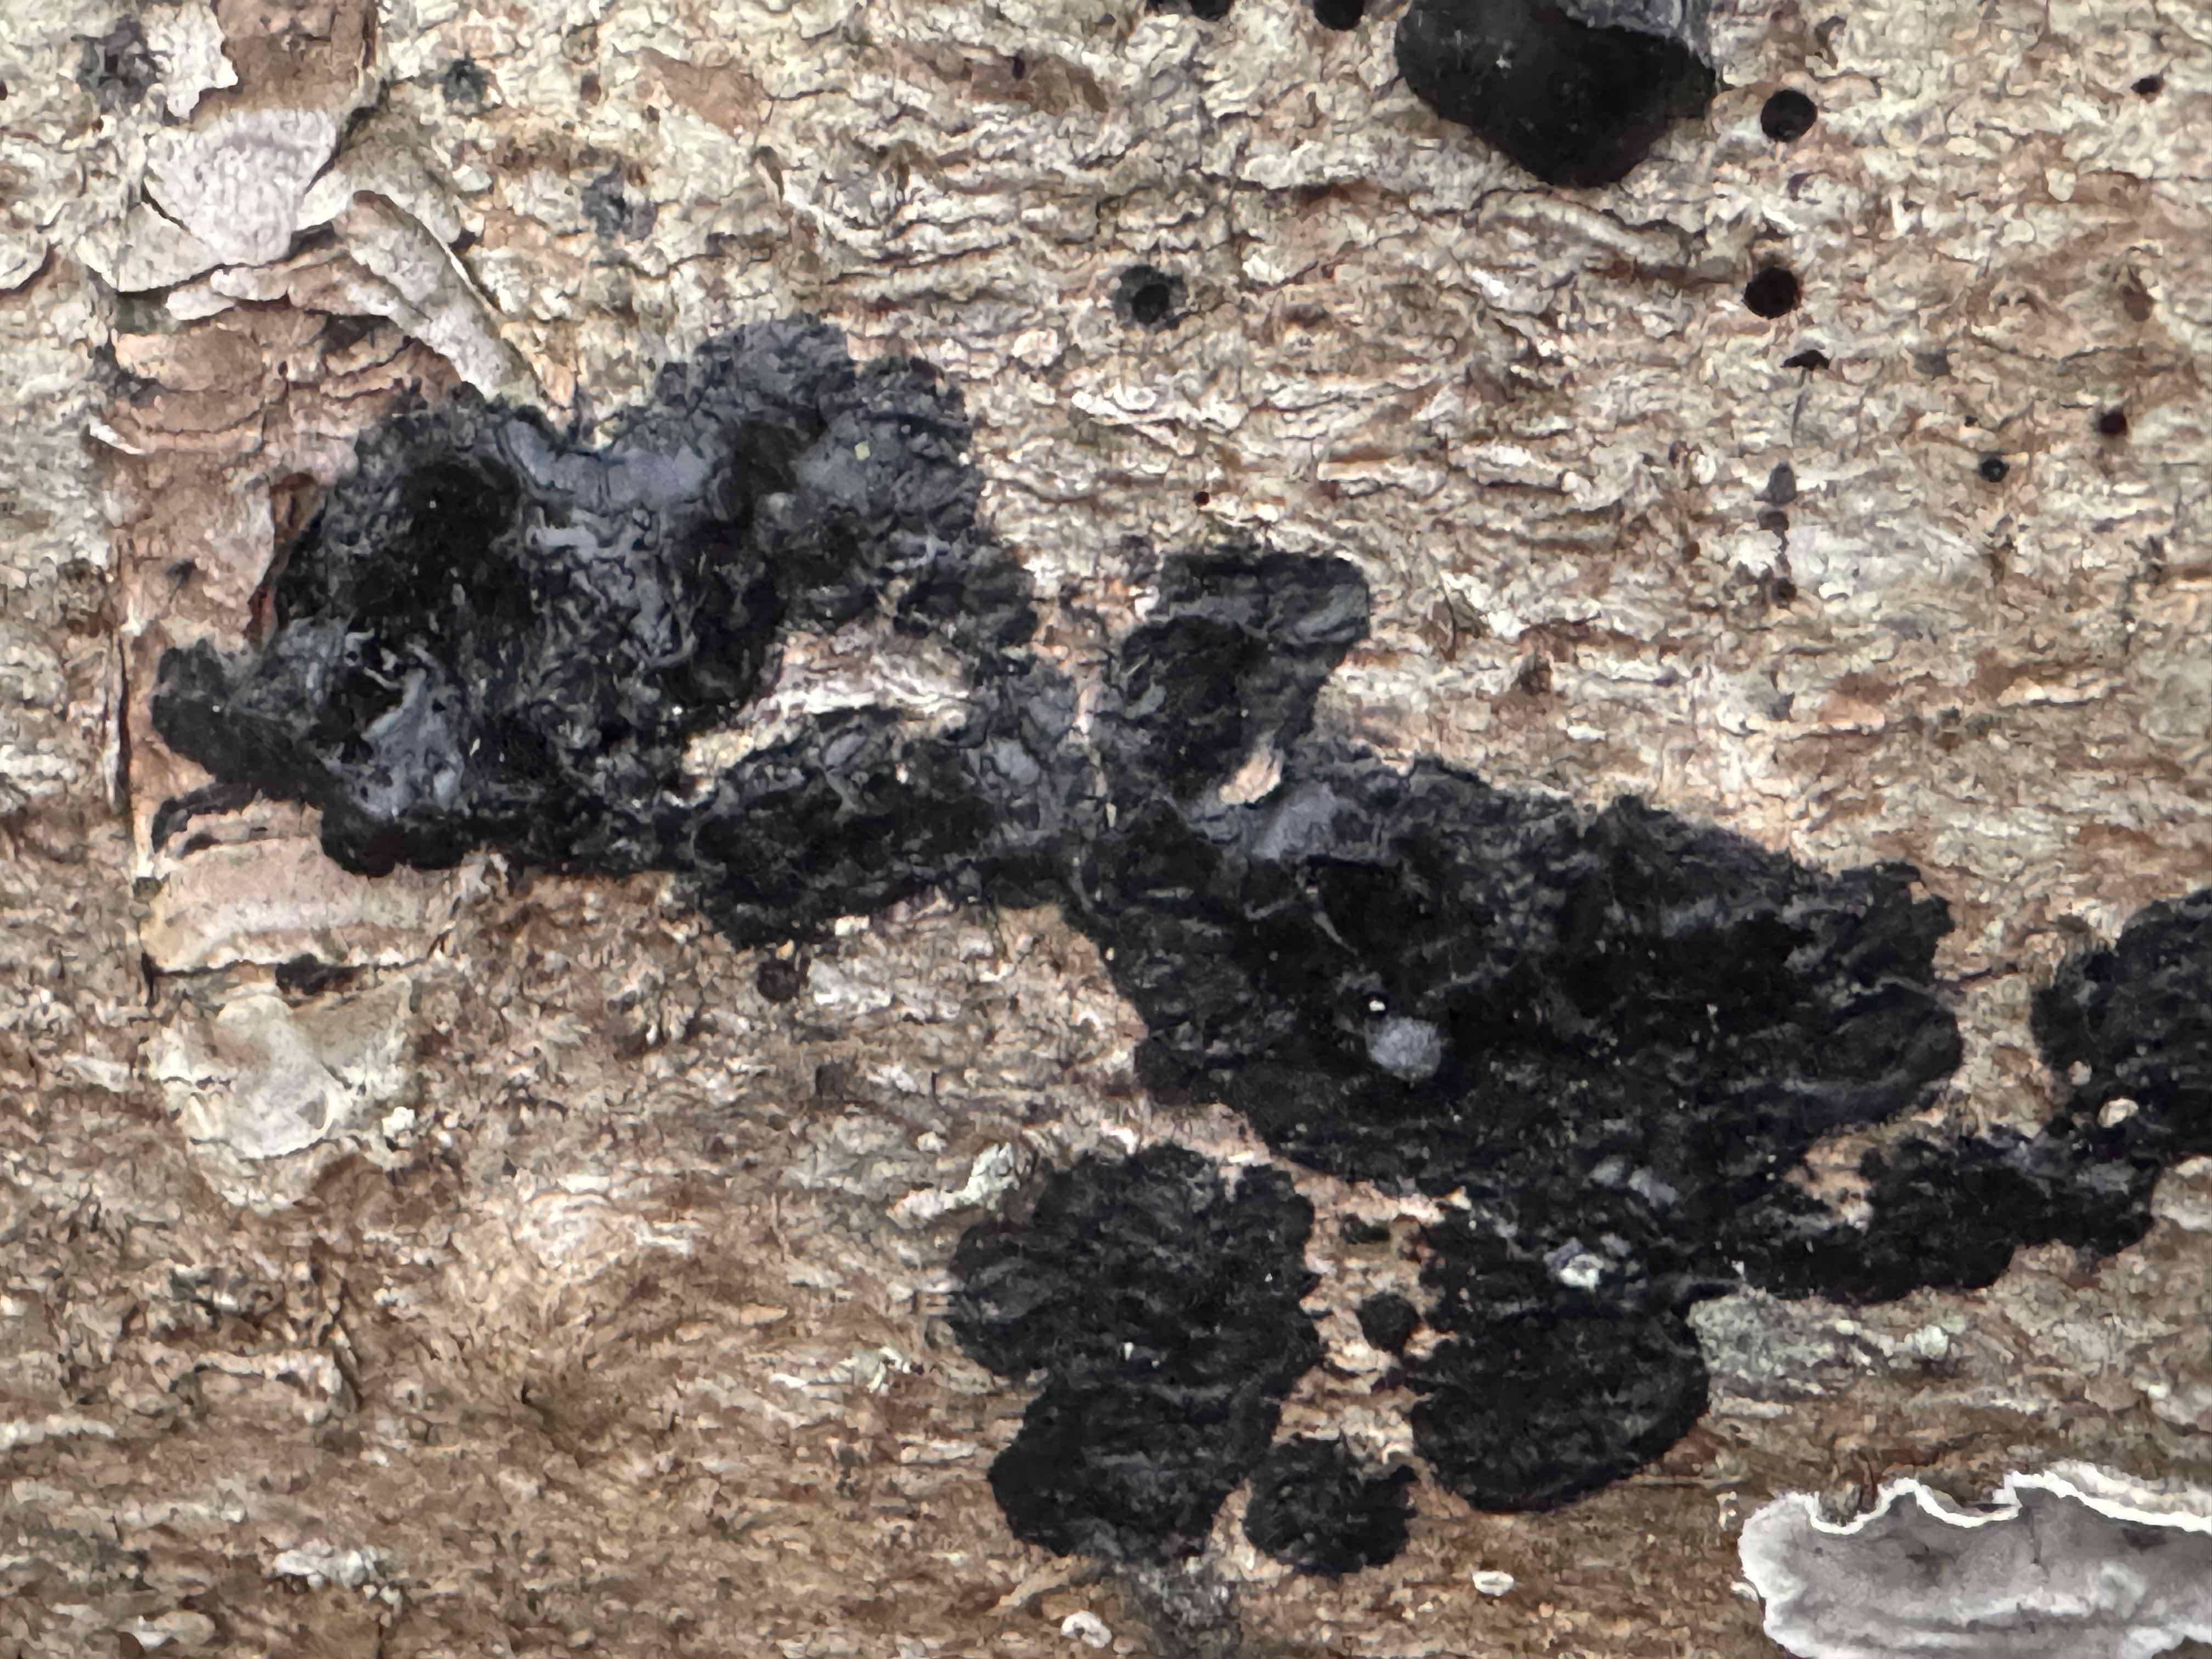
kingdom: Fungi
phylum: Basidiomycota
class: Agaricomycetes
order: Auriculariales
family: Auriculariaceae
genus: Exidia
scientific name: Exidia pithya
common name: gran-bævretop
